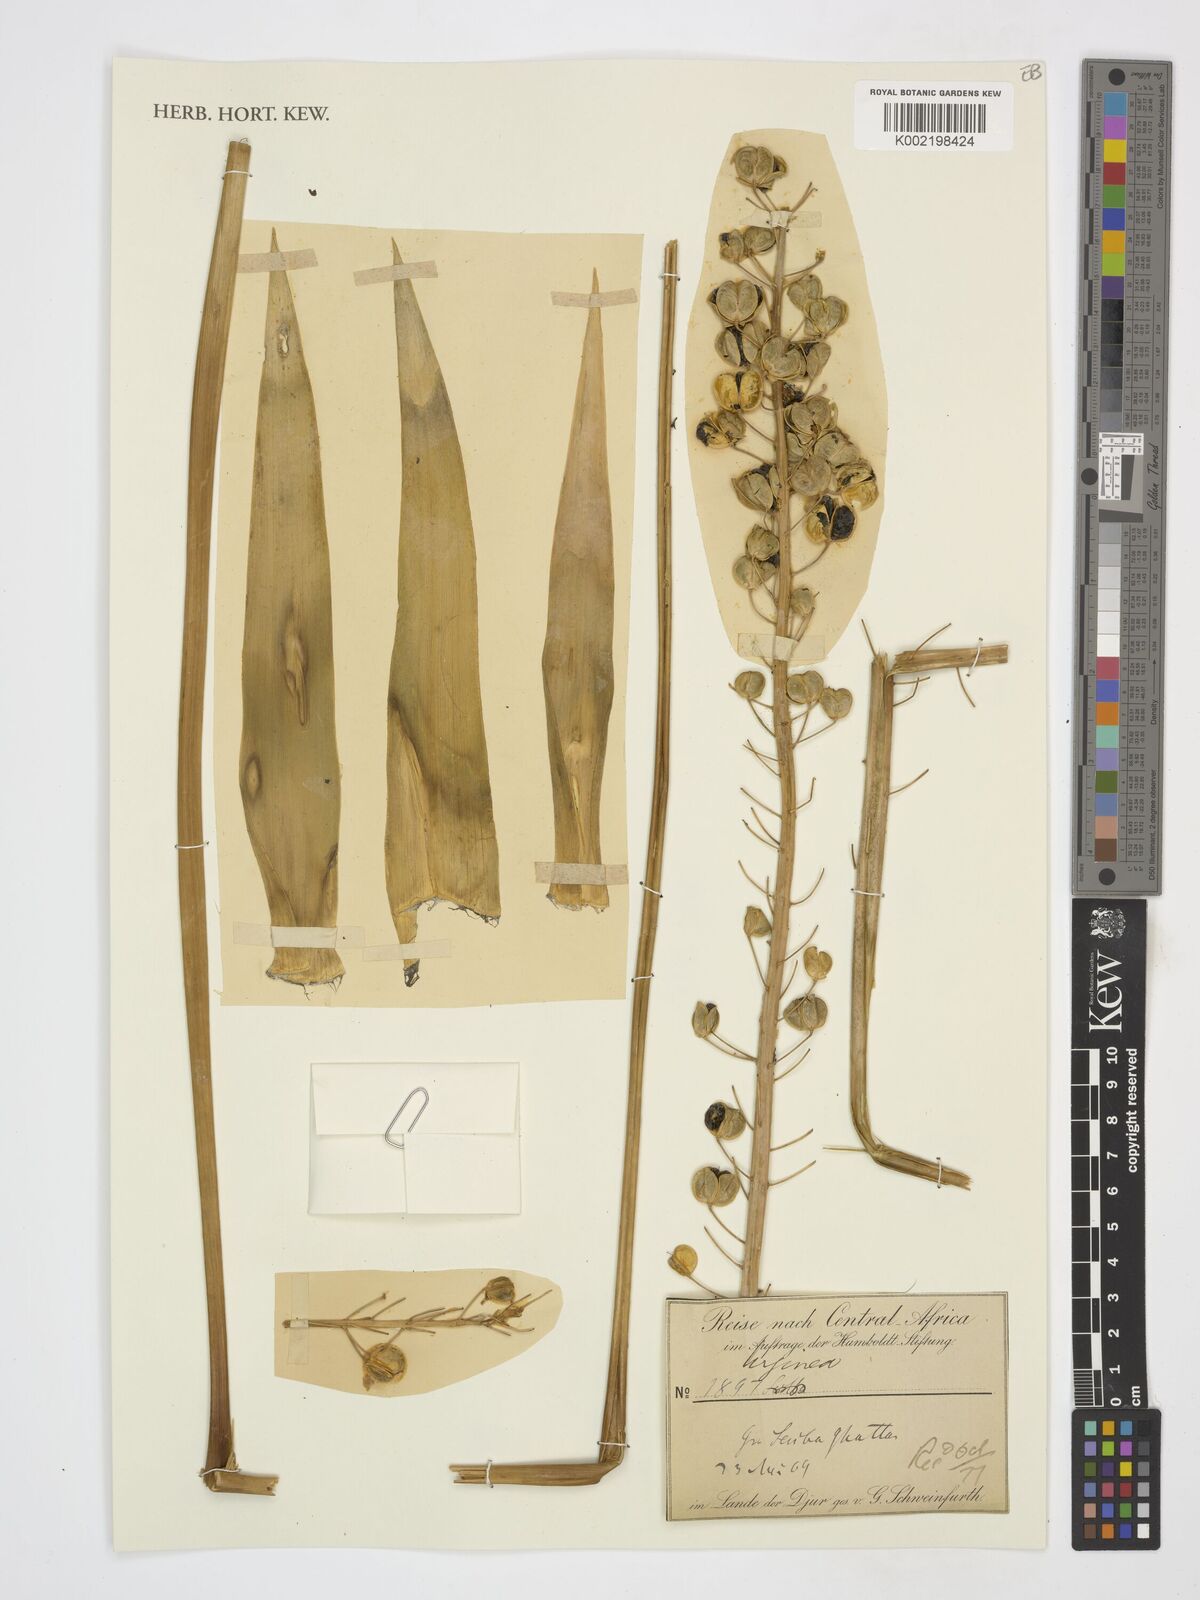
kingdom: Plantae
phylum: Tracheophyta
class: Liliopsida
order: Asparagales
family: Asparagaceae
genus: Drimia
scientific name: Drimia
